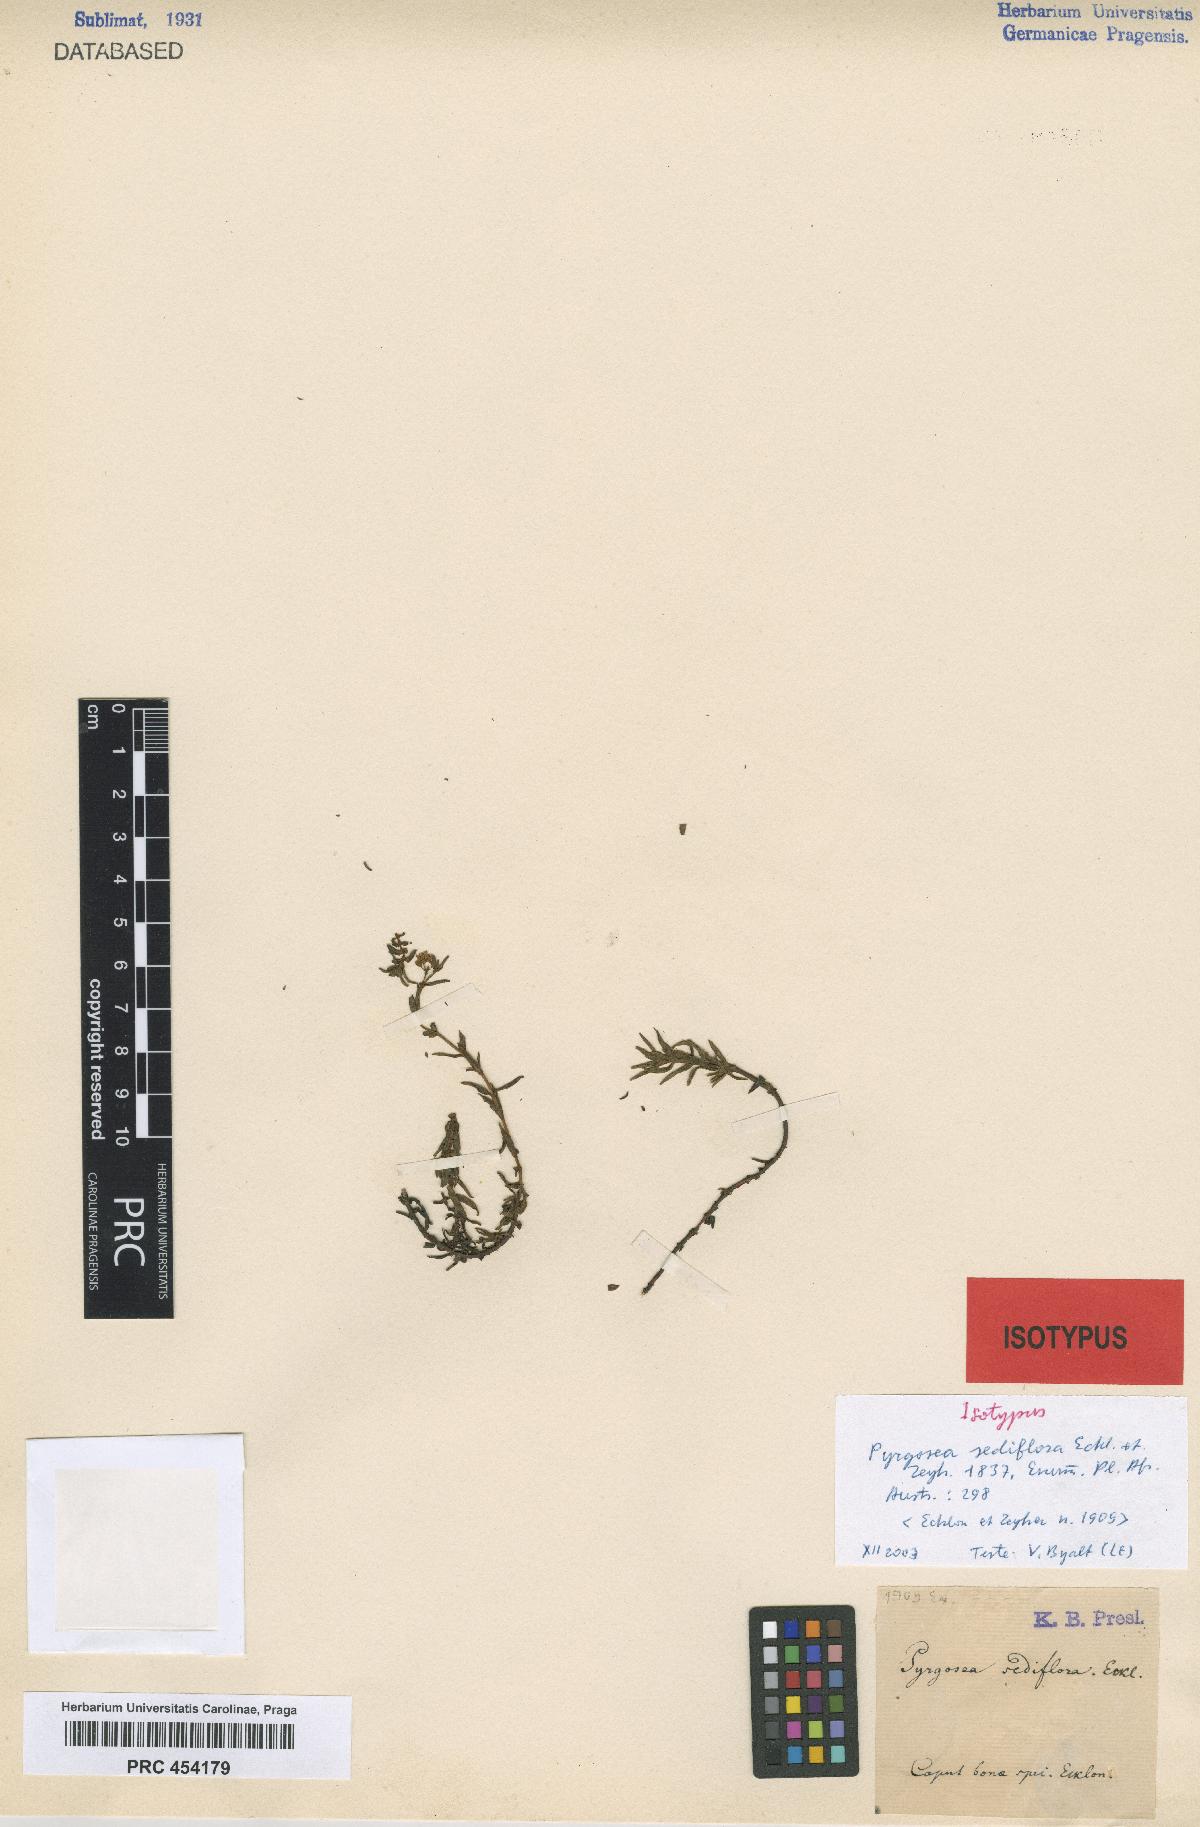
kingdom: Plantae
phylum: Tracheophyta
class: Magnoliopsida
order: Saxifragales
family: Crassulaceae
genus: Crassula
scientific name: Crassula sediflora
